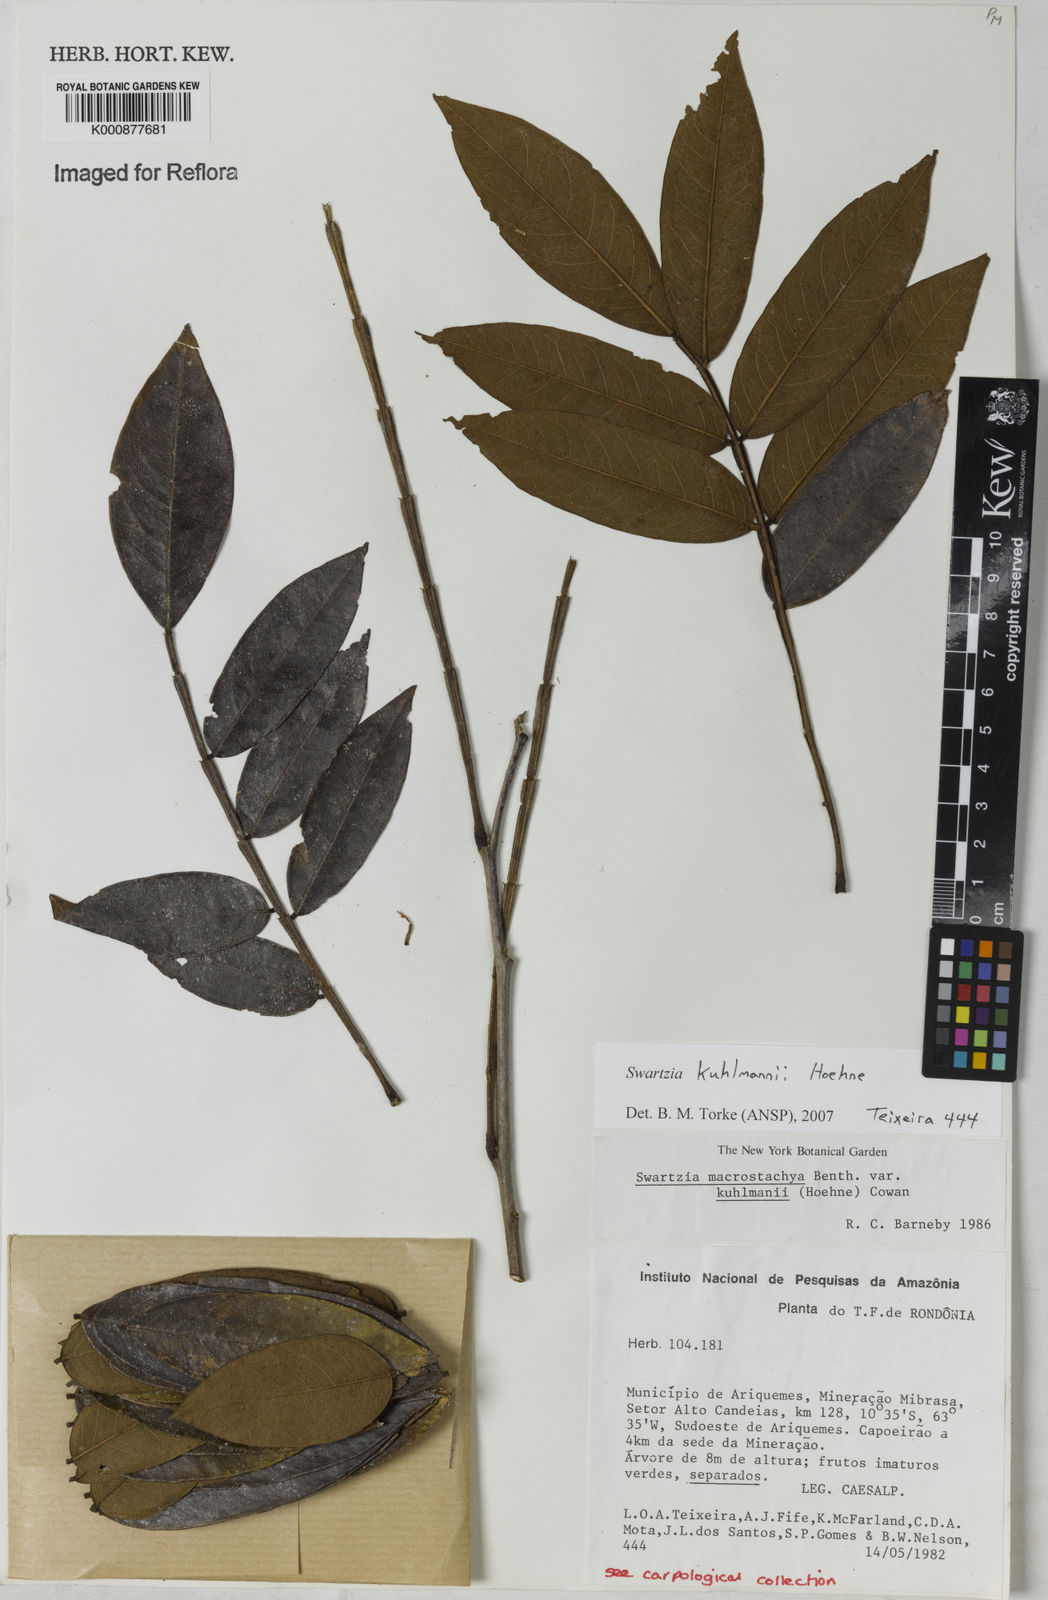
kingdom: Plantae
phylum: Tracheophyta
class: Magnoliopsida
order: Fabales
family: Fabaceae
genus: Swartzia
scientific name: Swartzia kuhlmannii
